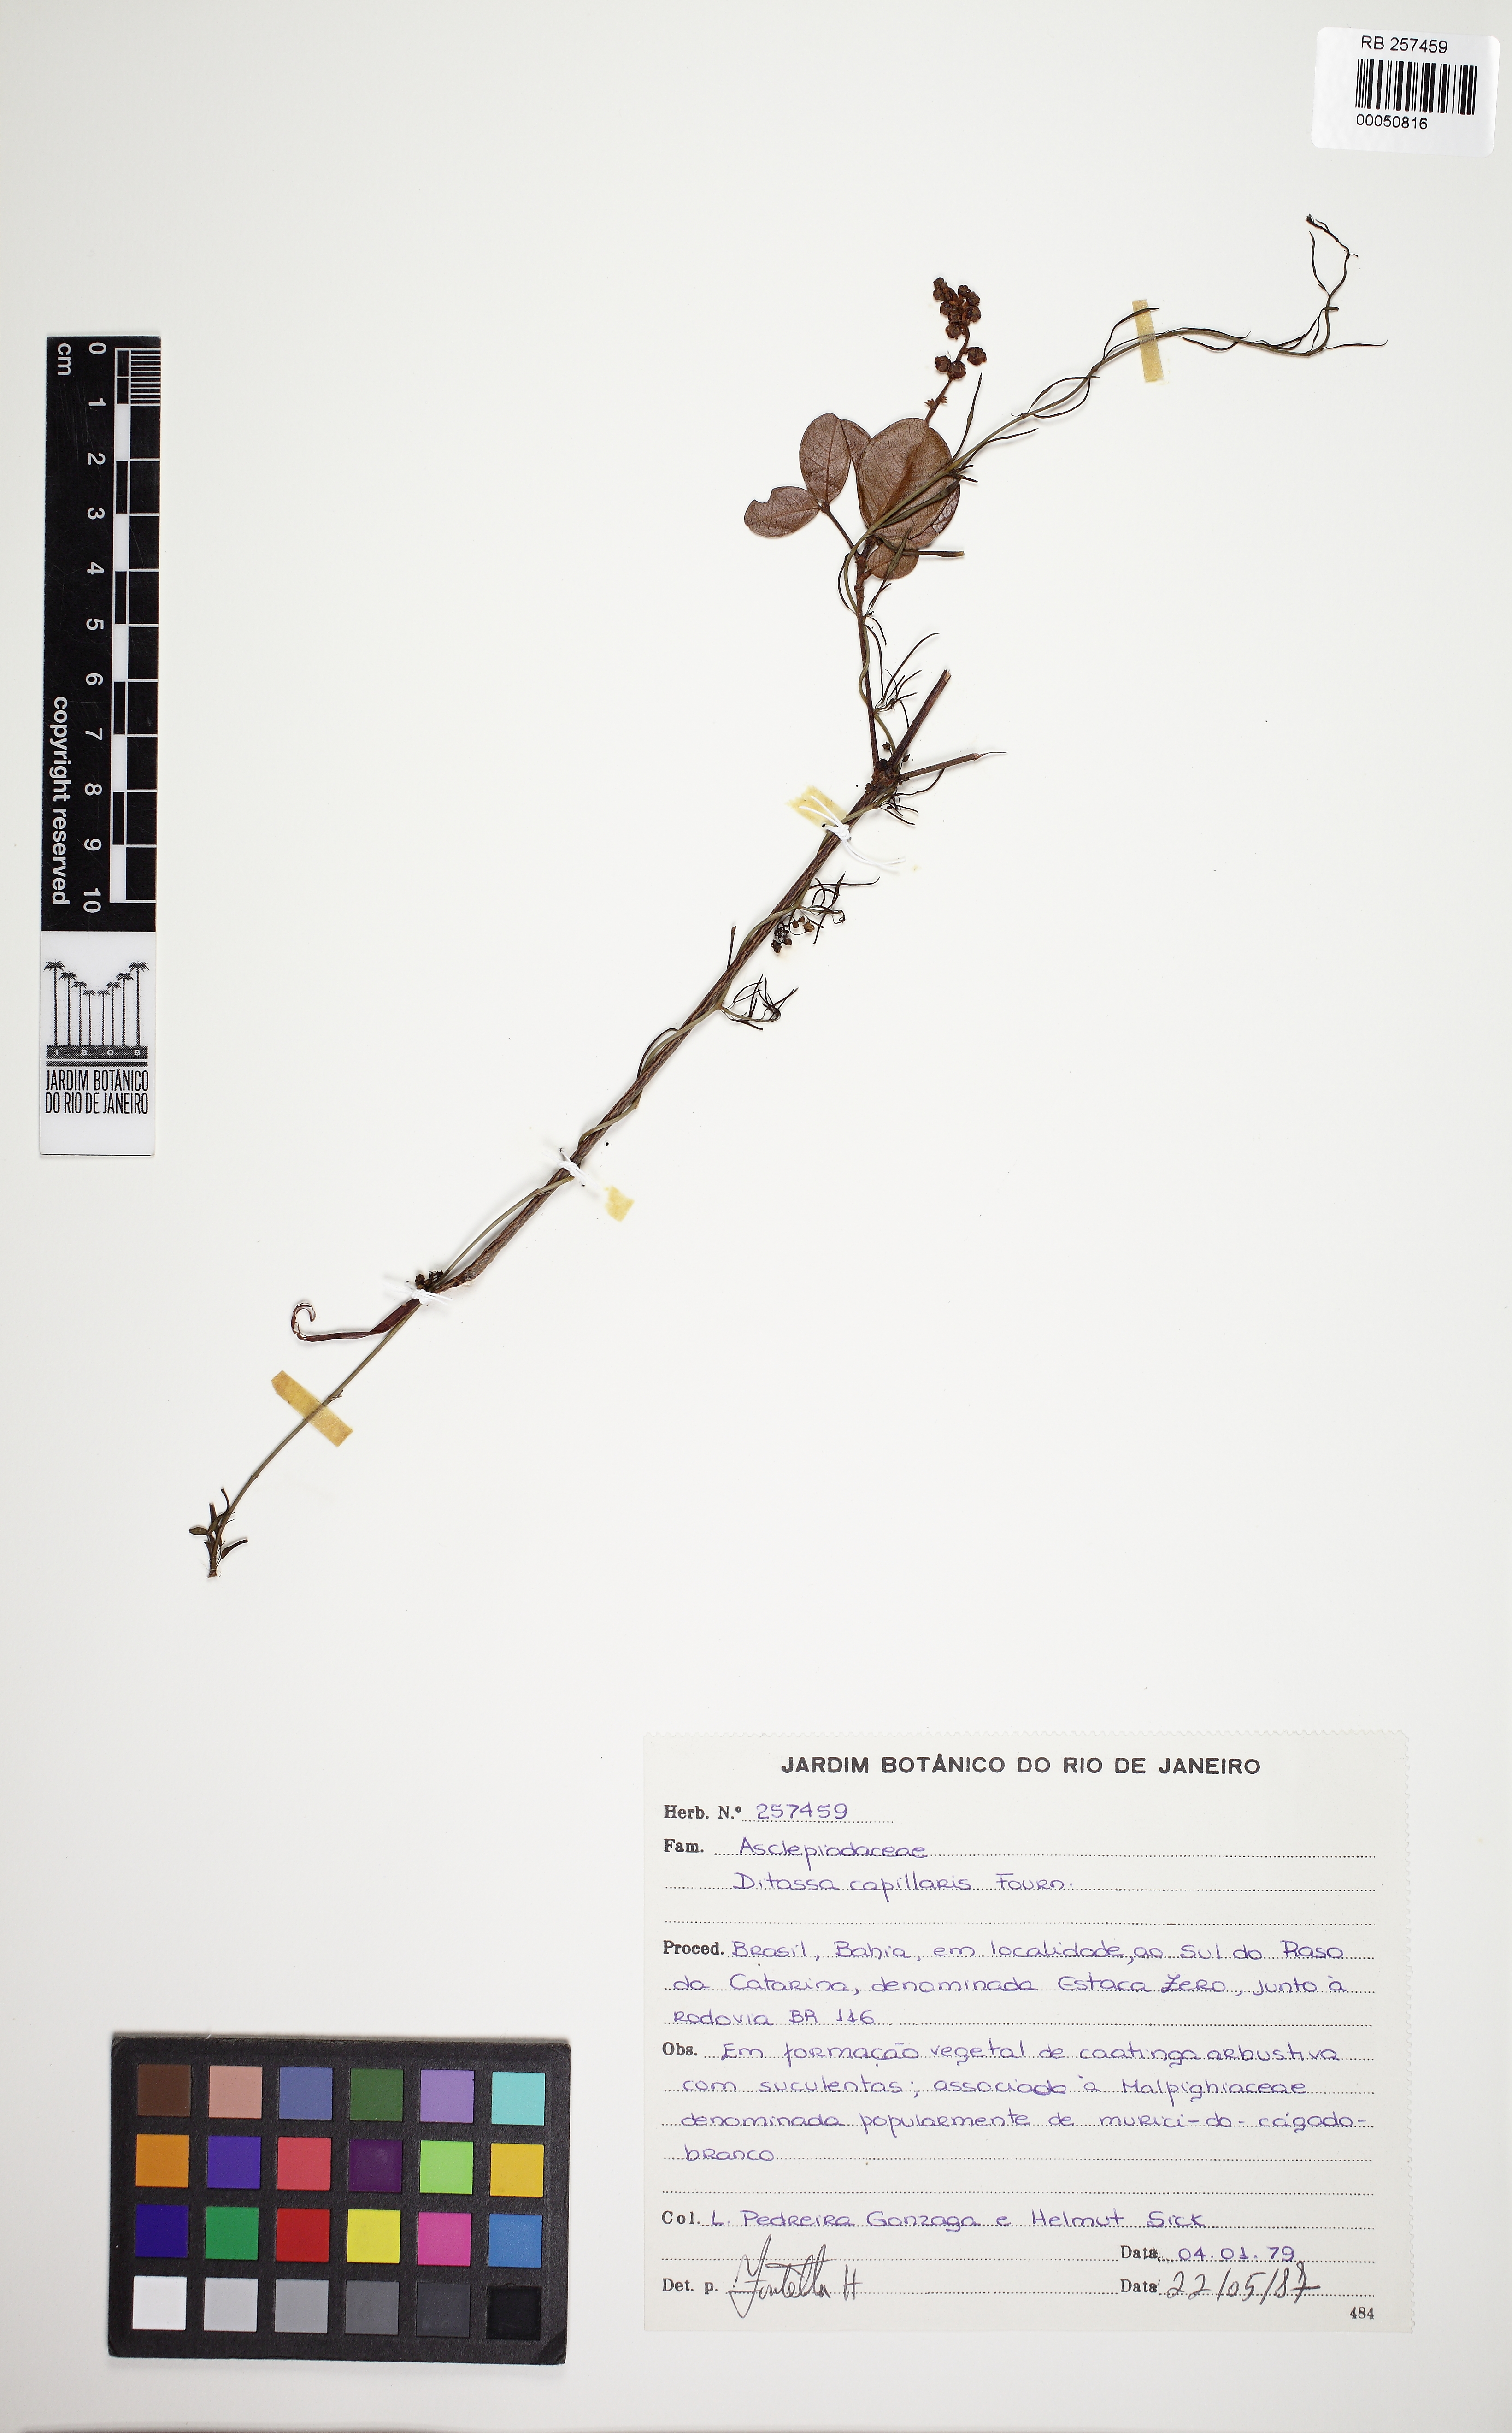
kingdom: Plantae
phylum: Tracheophyta
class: Magnoliopsida
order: Gentianales
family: Apocynaceae
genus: Ditassa
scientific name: Ditassa capillaris
